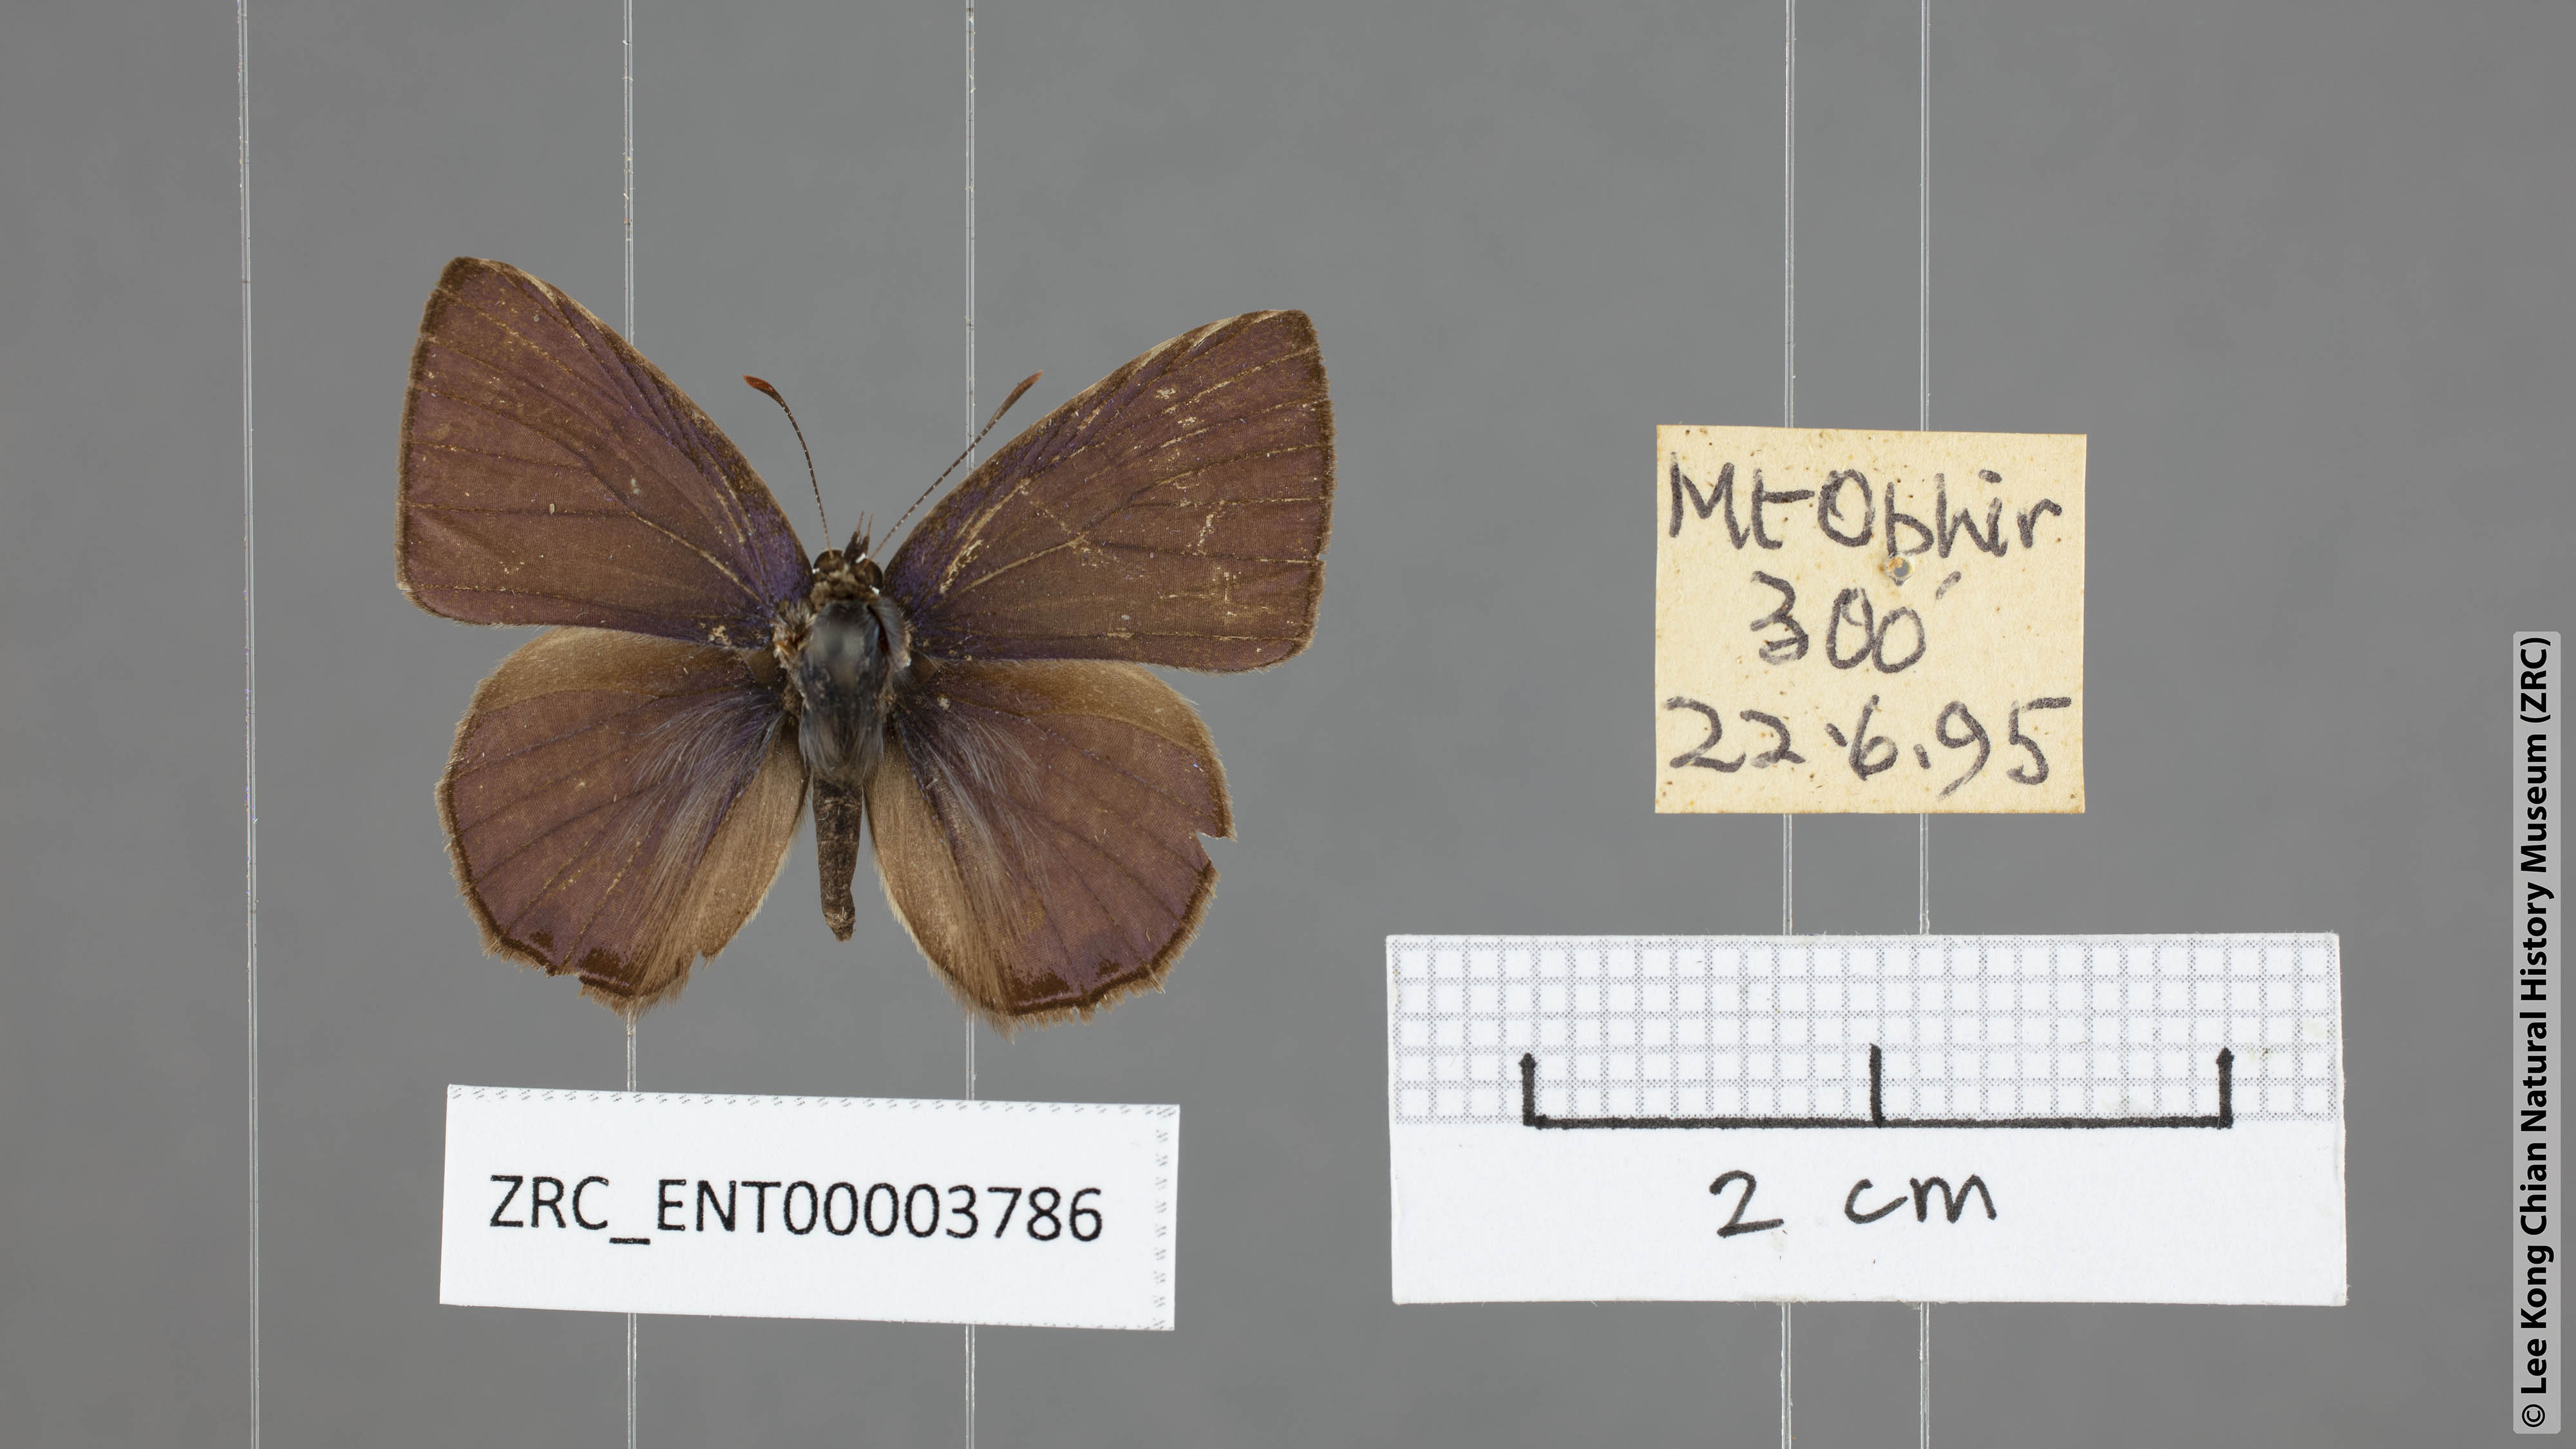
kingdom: Animalia
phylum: Arthropoda
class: Insecta
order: Lepidoptera
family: Lycaenidae
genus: Anthene
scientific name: Anthene emolus
